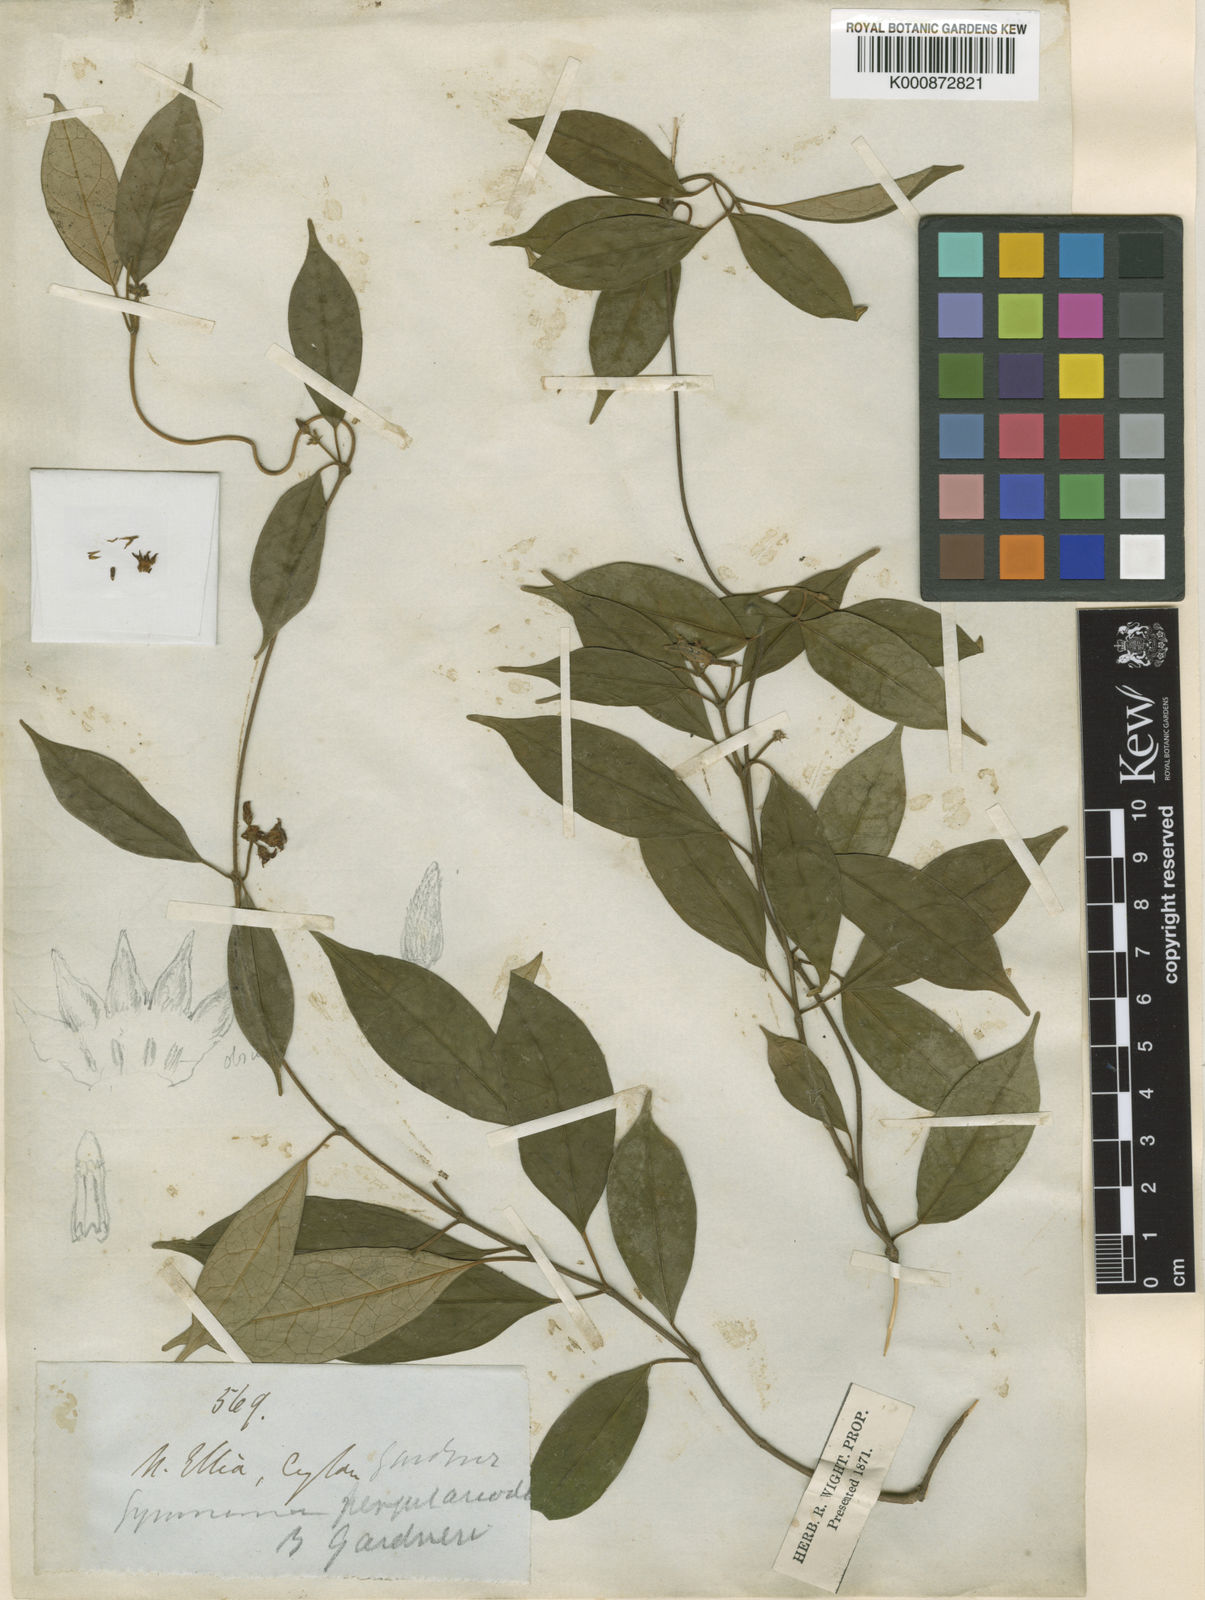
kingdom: Plantae
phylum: Tracheophyta
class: Magnoliopsida
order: Gentianales
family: Apocynaceae
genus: Gymnema
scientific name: Gymnema
